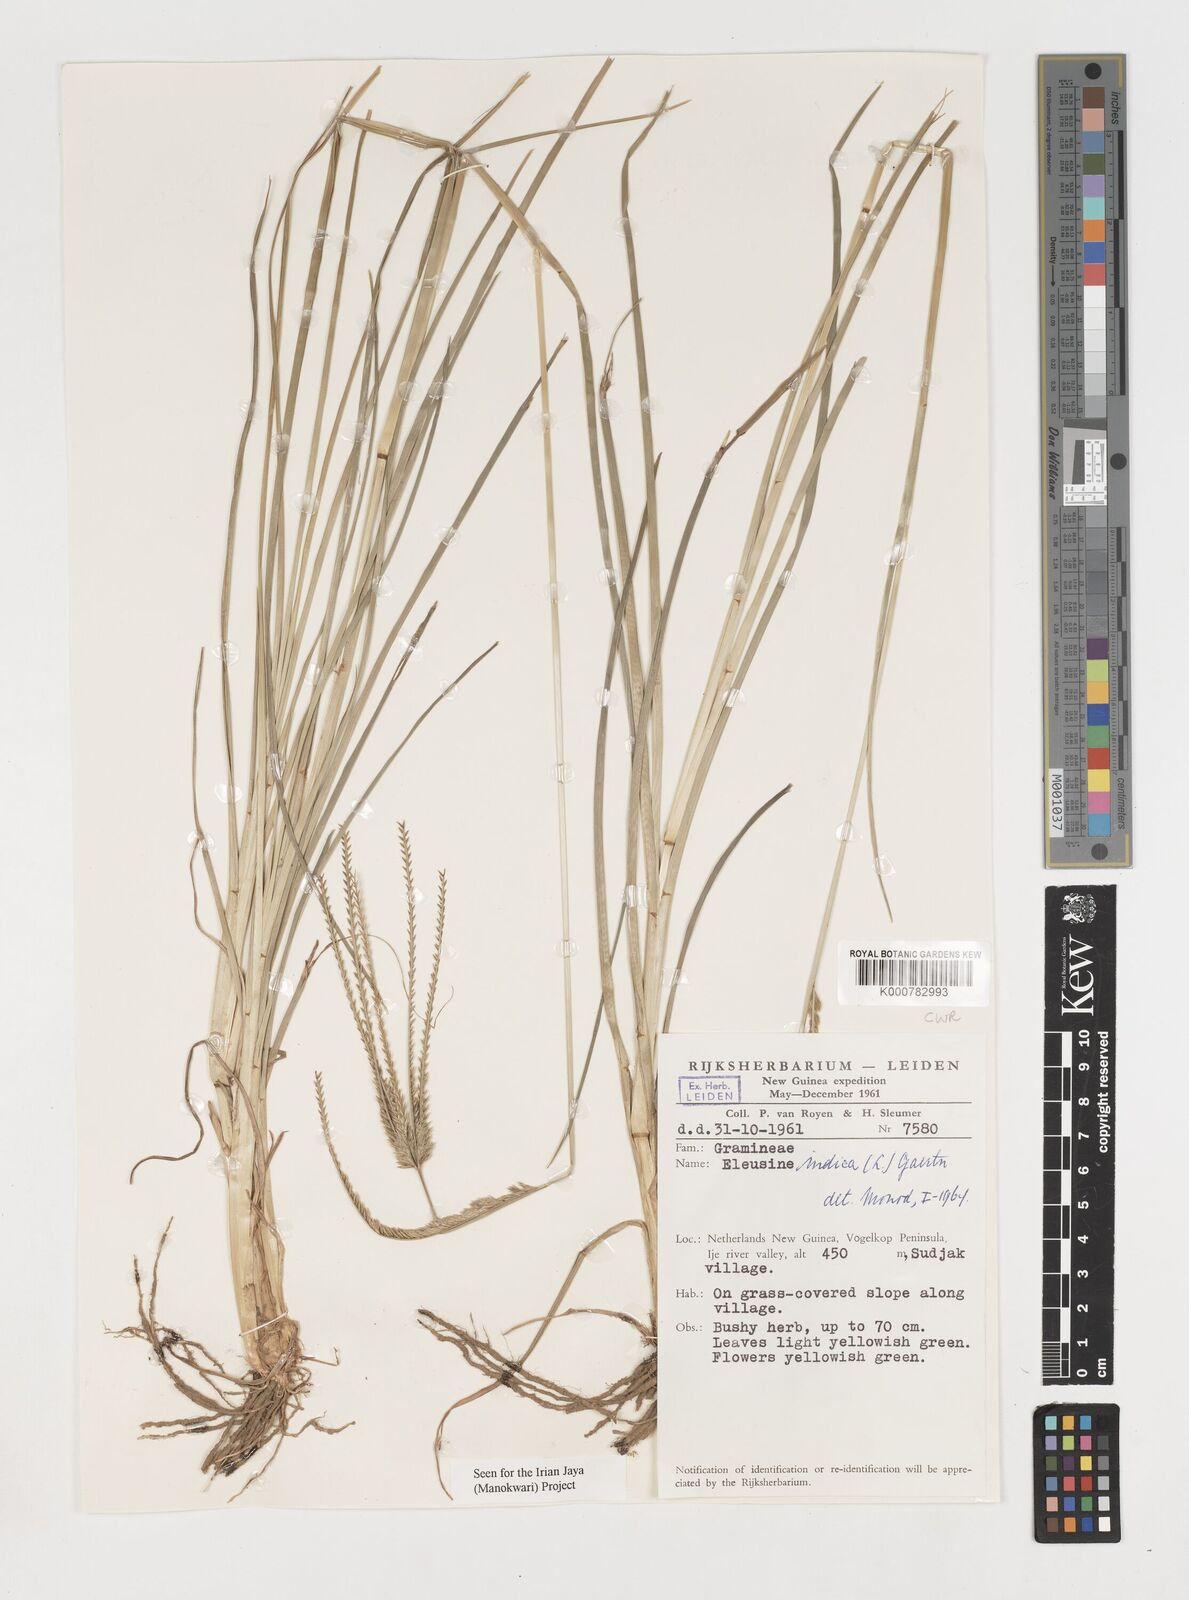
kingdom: Plantae
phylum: Tracheophyta
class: Liliopsida
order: Poales
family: Poaceae
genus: Eleusine
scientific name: Eleusine indica
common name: Yard-grass
